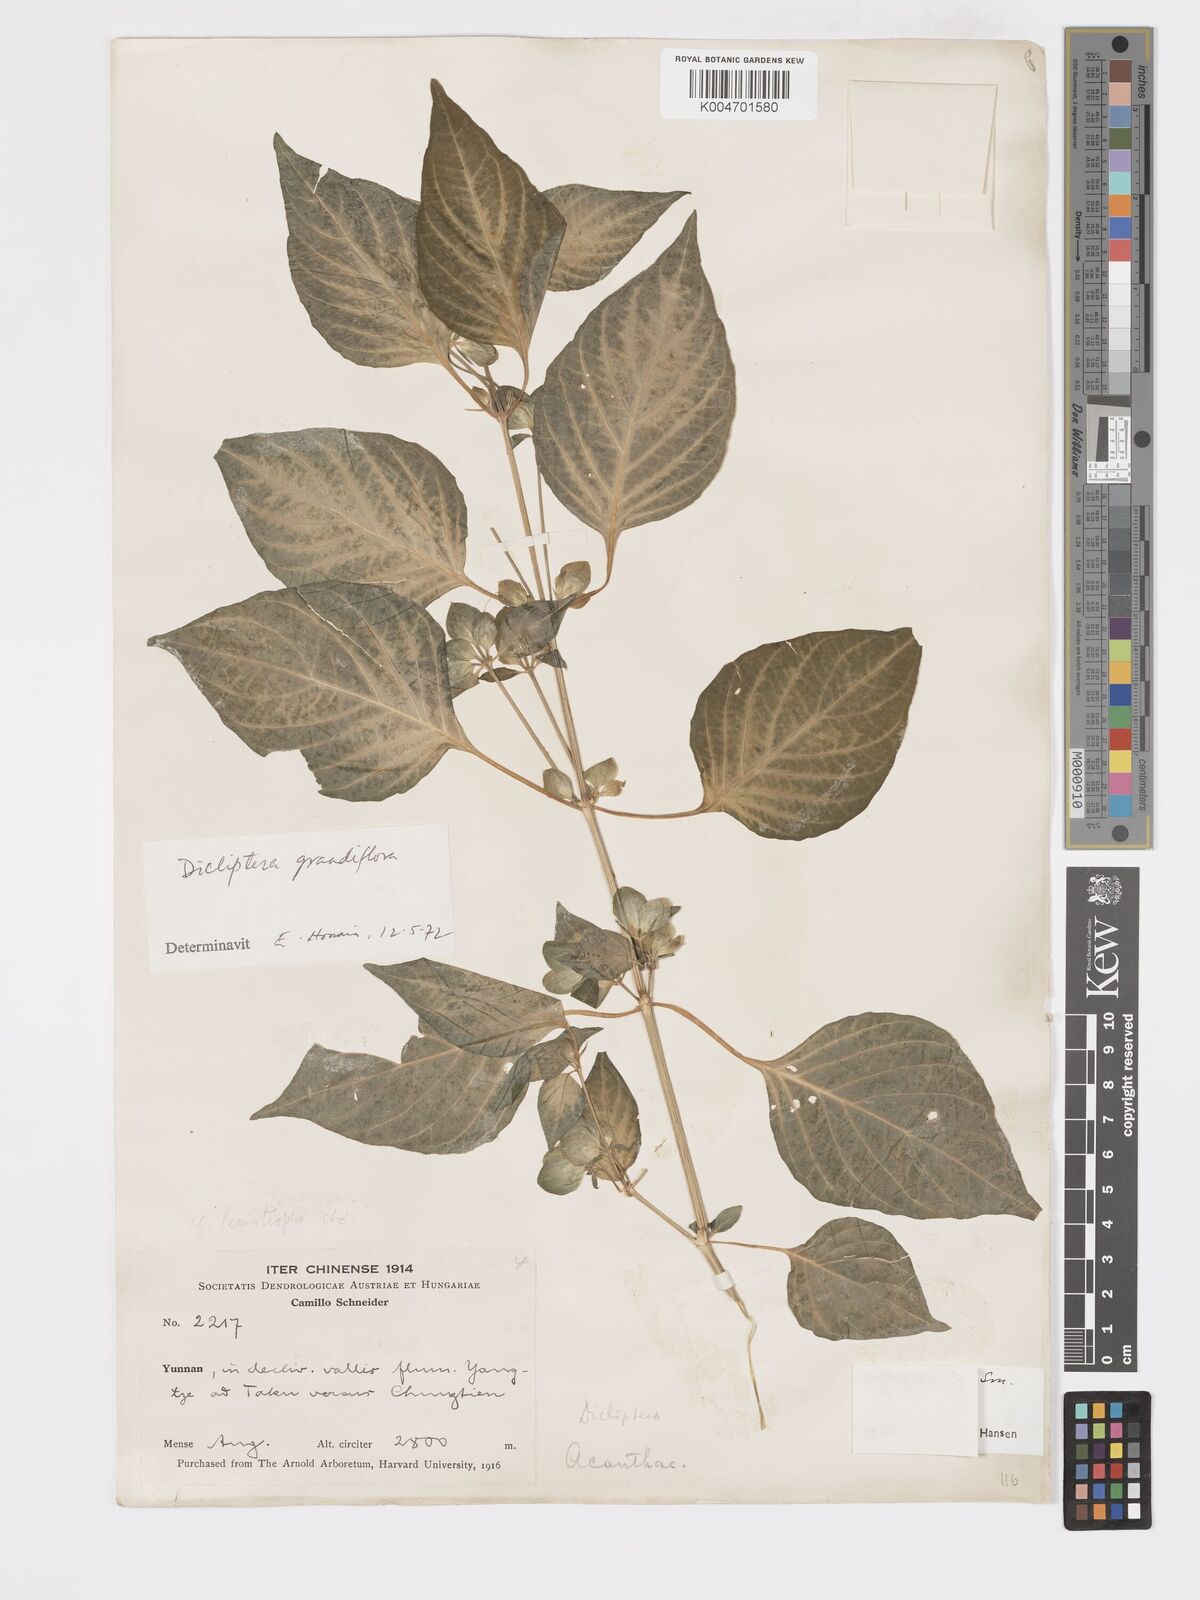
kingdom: Plantae
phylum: Tracheophyta
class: Magnoliopsida
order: Lamiales
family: Acanthaceae
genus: Dicliptera
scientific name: Dicliptera elegans
